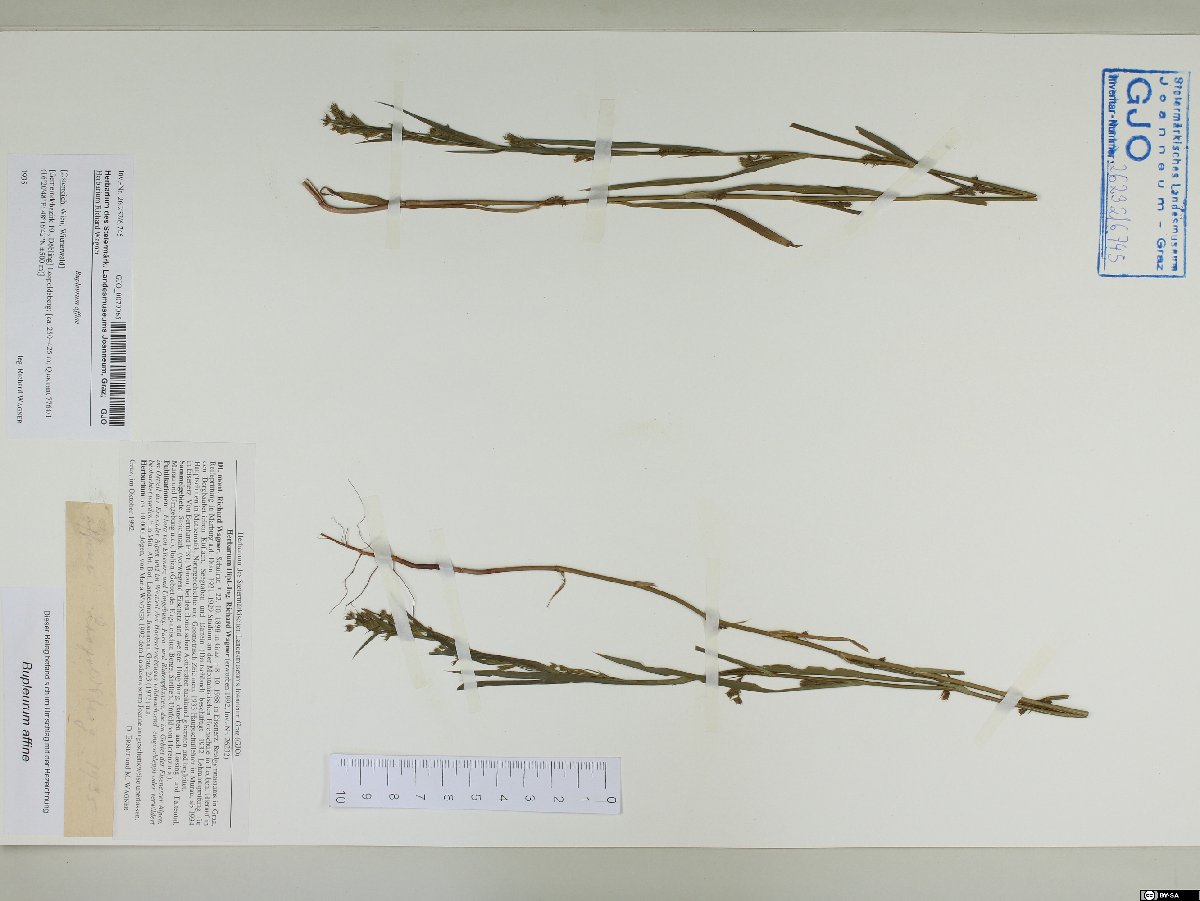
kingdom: Plantae
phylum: Tracheophyta
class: Magnoliopsida
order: Apiales
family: Apiaceae
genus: Bupleurum
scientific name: Bupleurum affine
